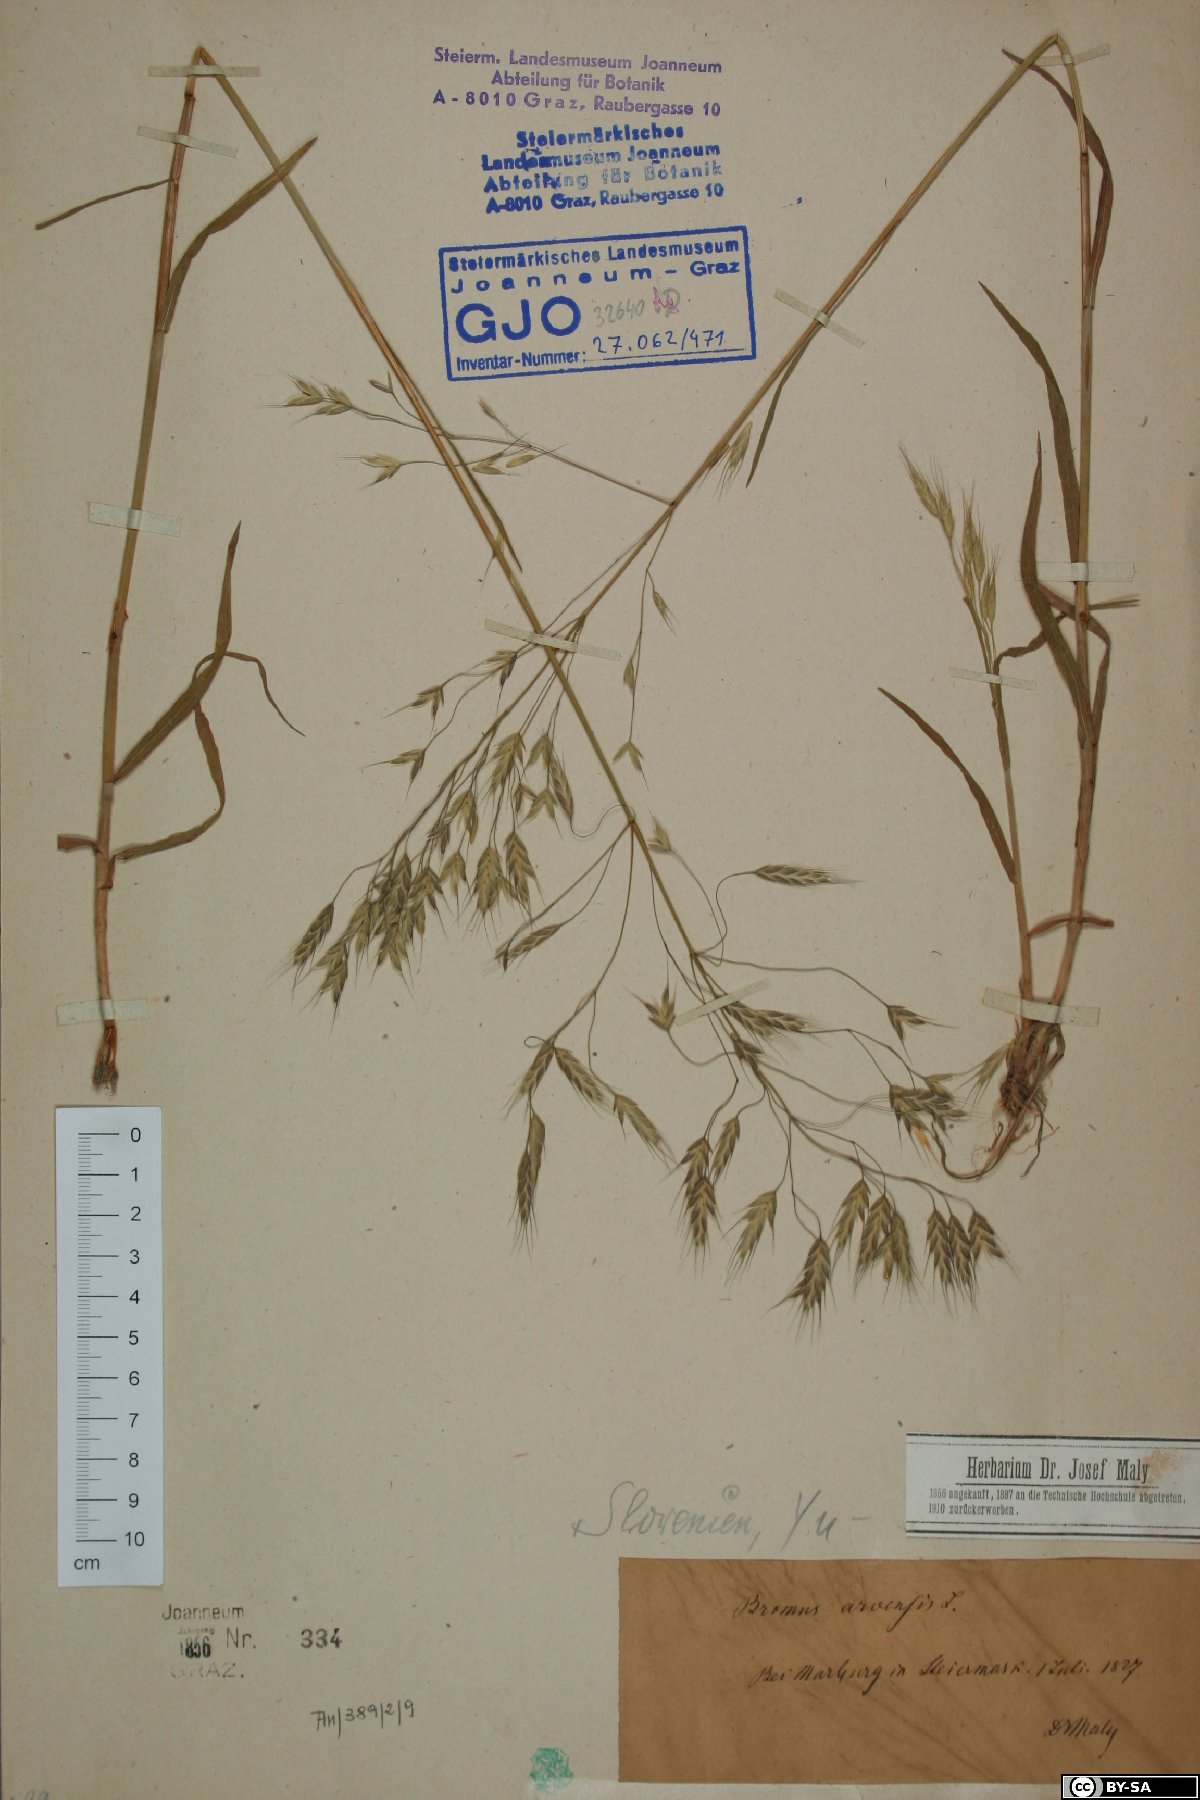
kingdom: Plantae
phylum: Tracheophyta
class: Liliopsida
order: Poales
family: Poaceae
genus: Bromus
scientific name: Bromus arvensis
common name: Field brome
